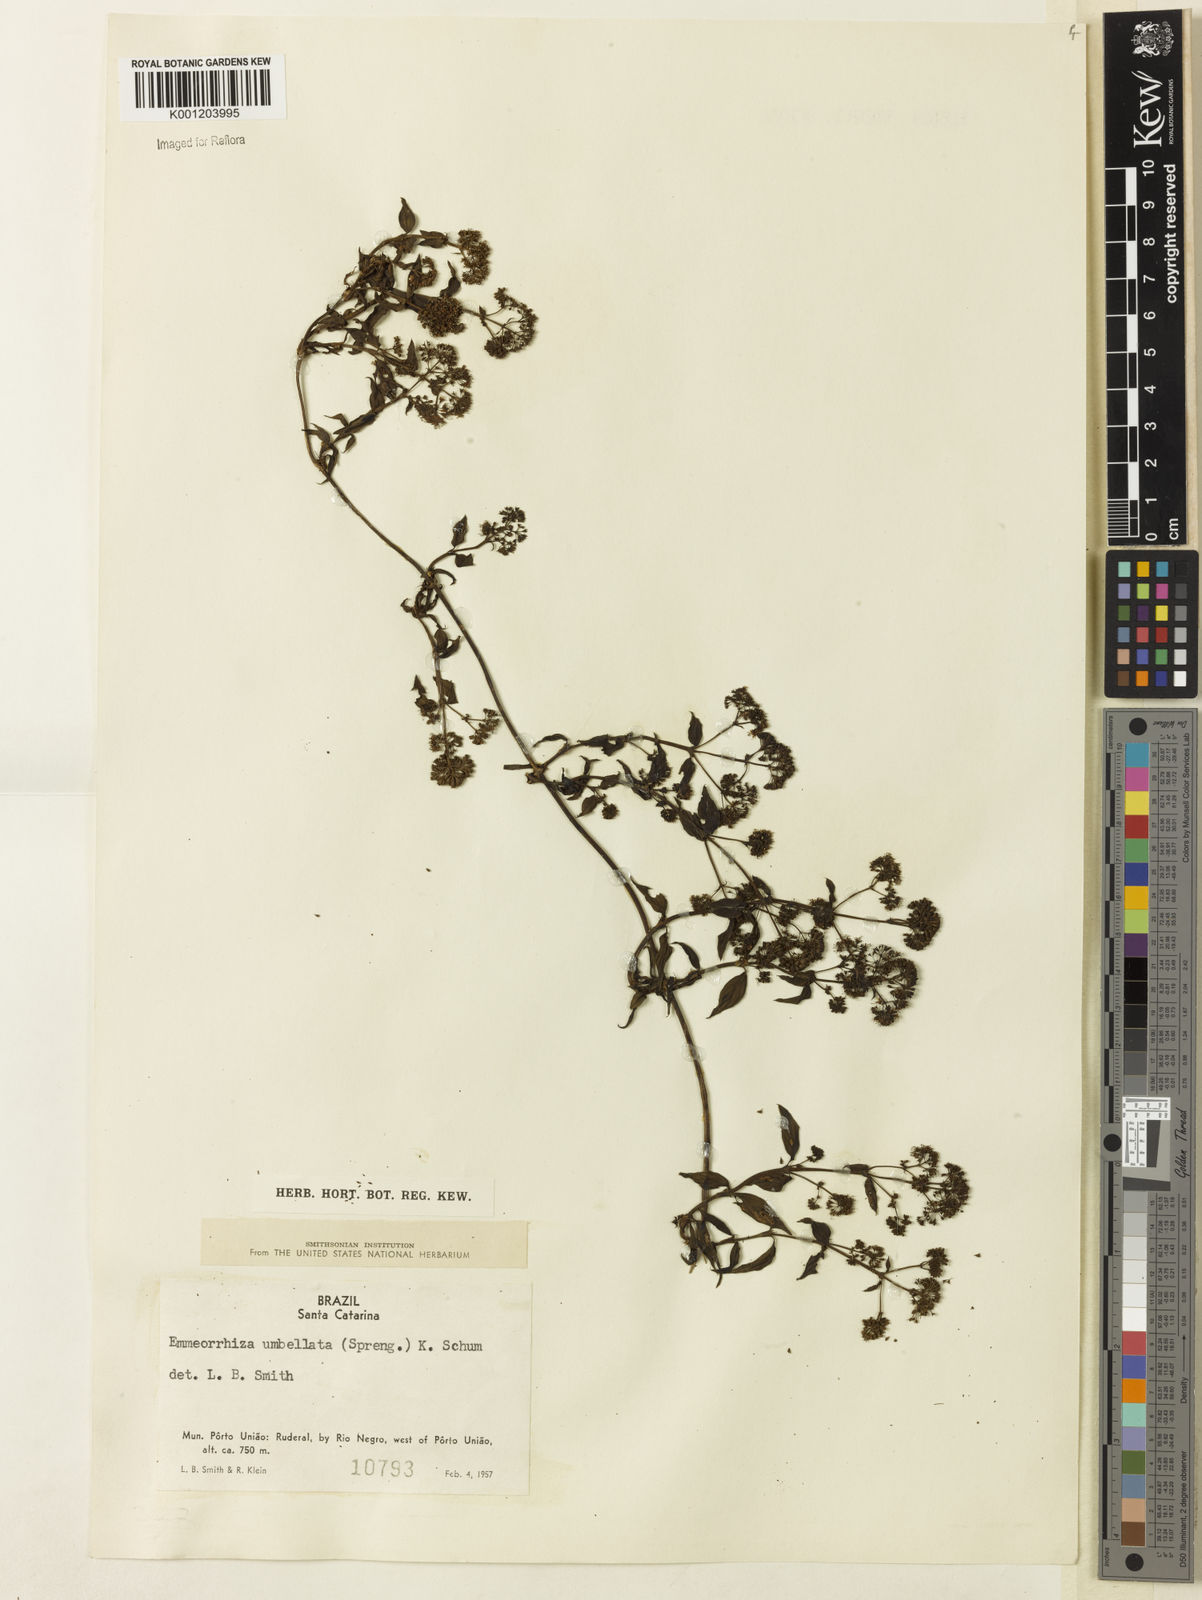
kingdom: Plantae
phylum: Tracheophyta
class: Magnoliopsida
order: Gentianales
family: Rubiaceae
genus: Emmeorhiza
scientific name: Emmeorhiza umbellata
